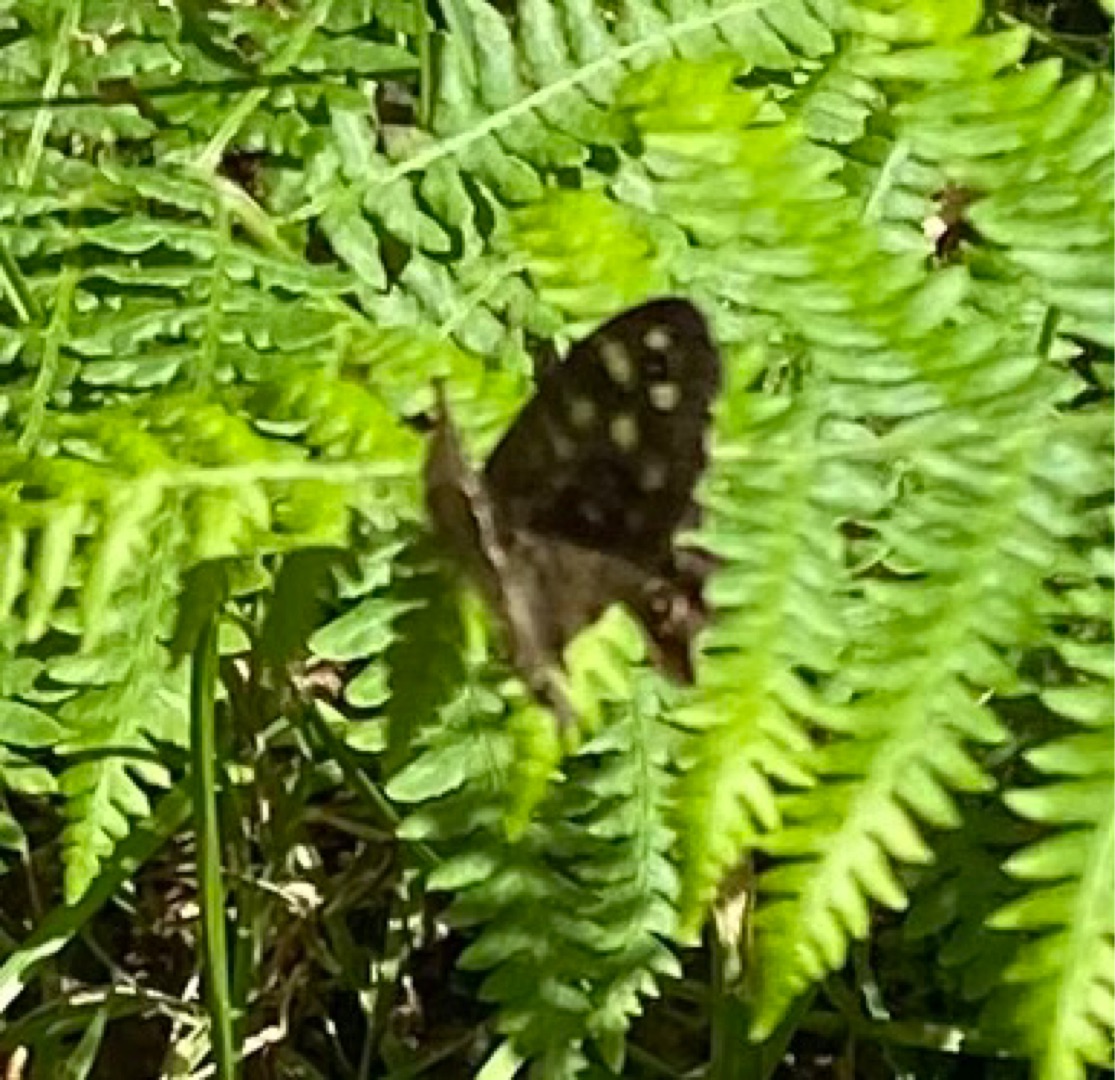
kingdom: Animalia
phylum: Arthropoda
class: Insecta
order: Lepidoptera
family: Nymphalidae
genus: Pararge
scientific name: Pararge aegeria
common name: Skovrandøje
